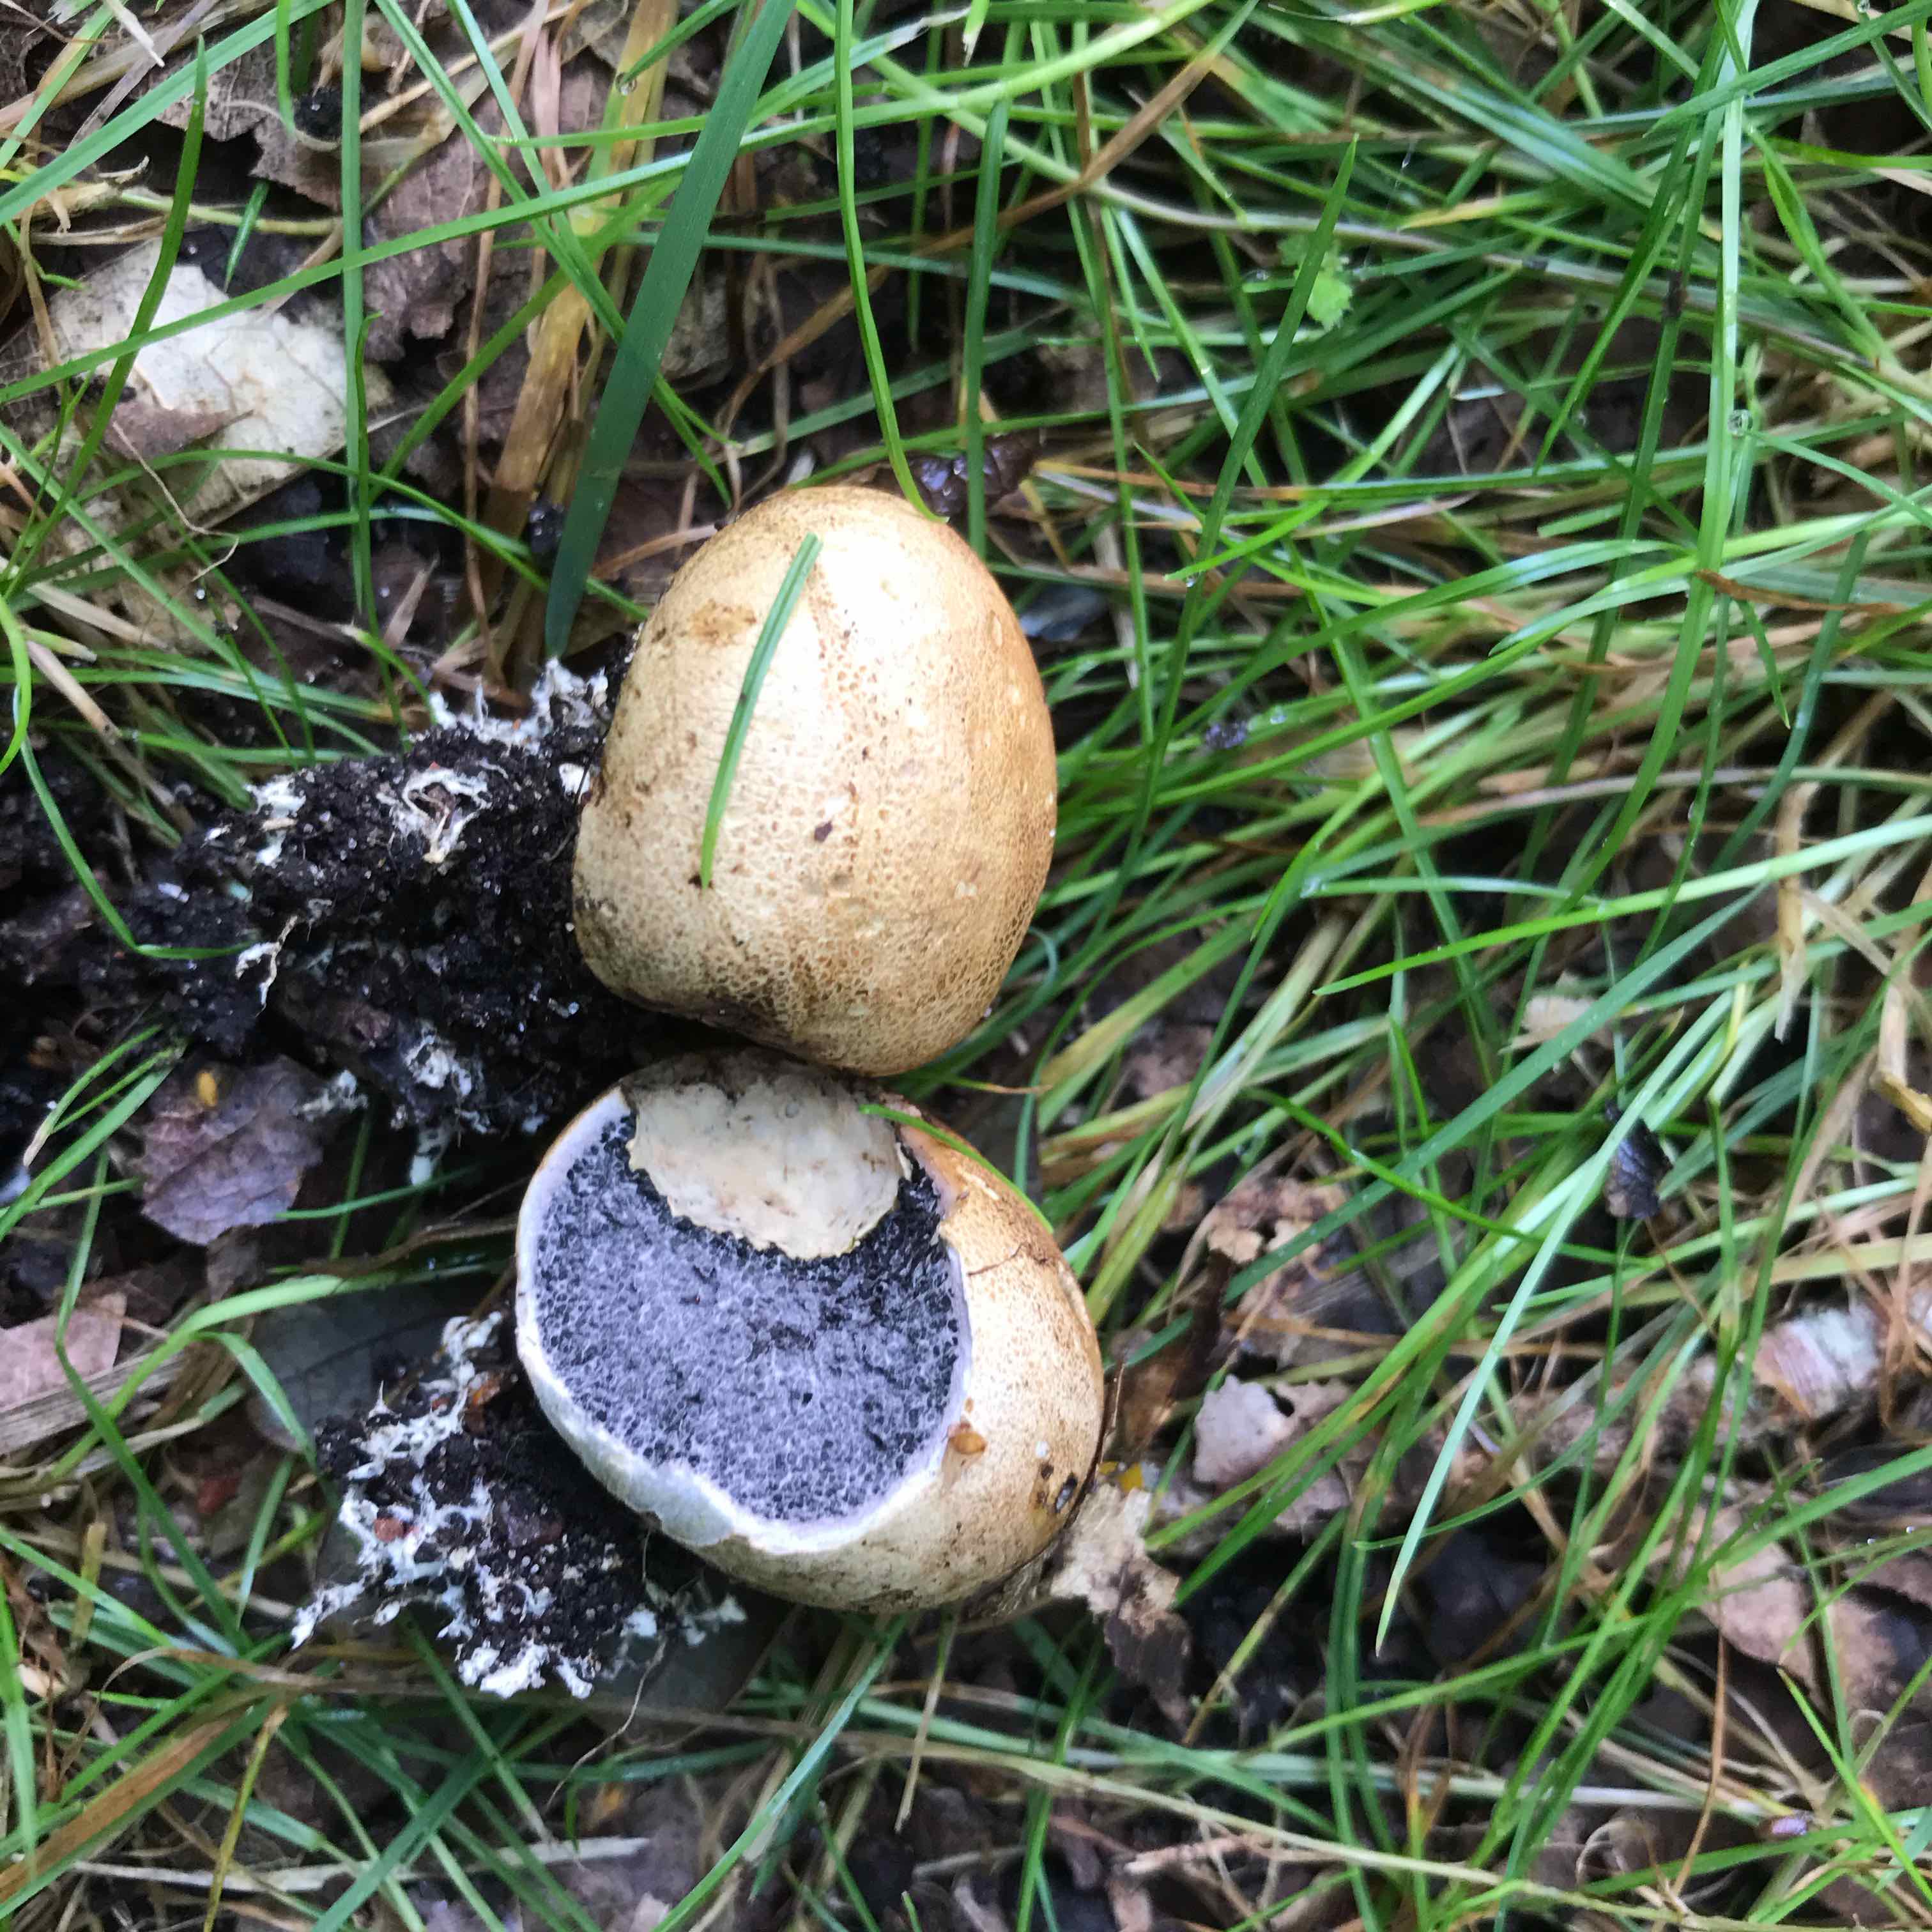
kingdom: Fungi
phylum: Basidiomycota
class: Agaricomycetes
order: Boletales
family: Sclerodermataceae
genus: Scleroderma
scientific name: Scleroderma
